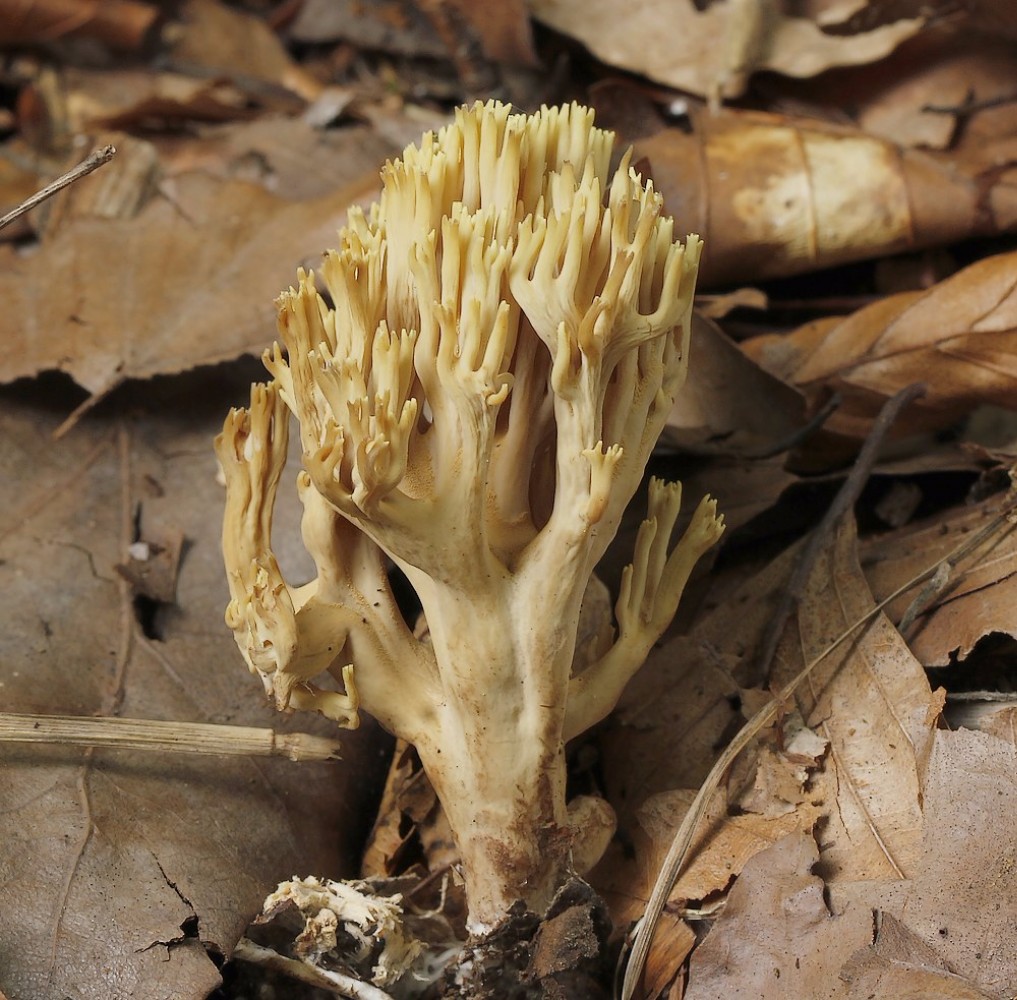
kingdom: Fungi
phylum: Basidiomycota
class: Agaricomycetes
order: Gomphales
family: Gomphaceae
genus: Ramaria
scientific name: Ramaria stricta
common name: rank koralsvamp
